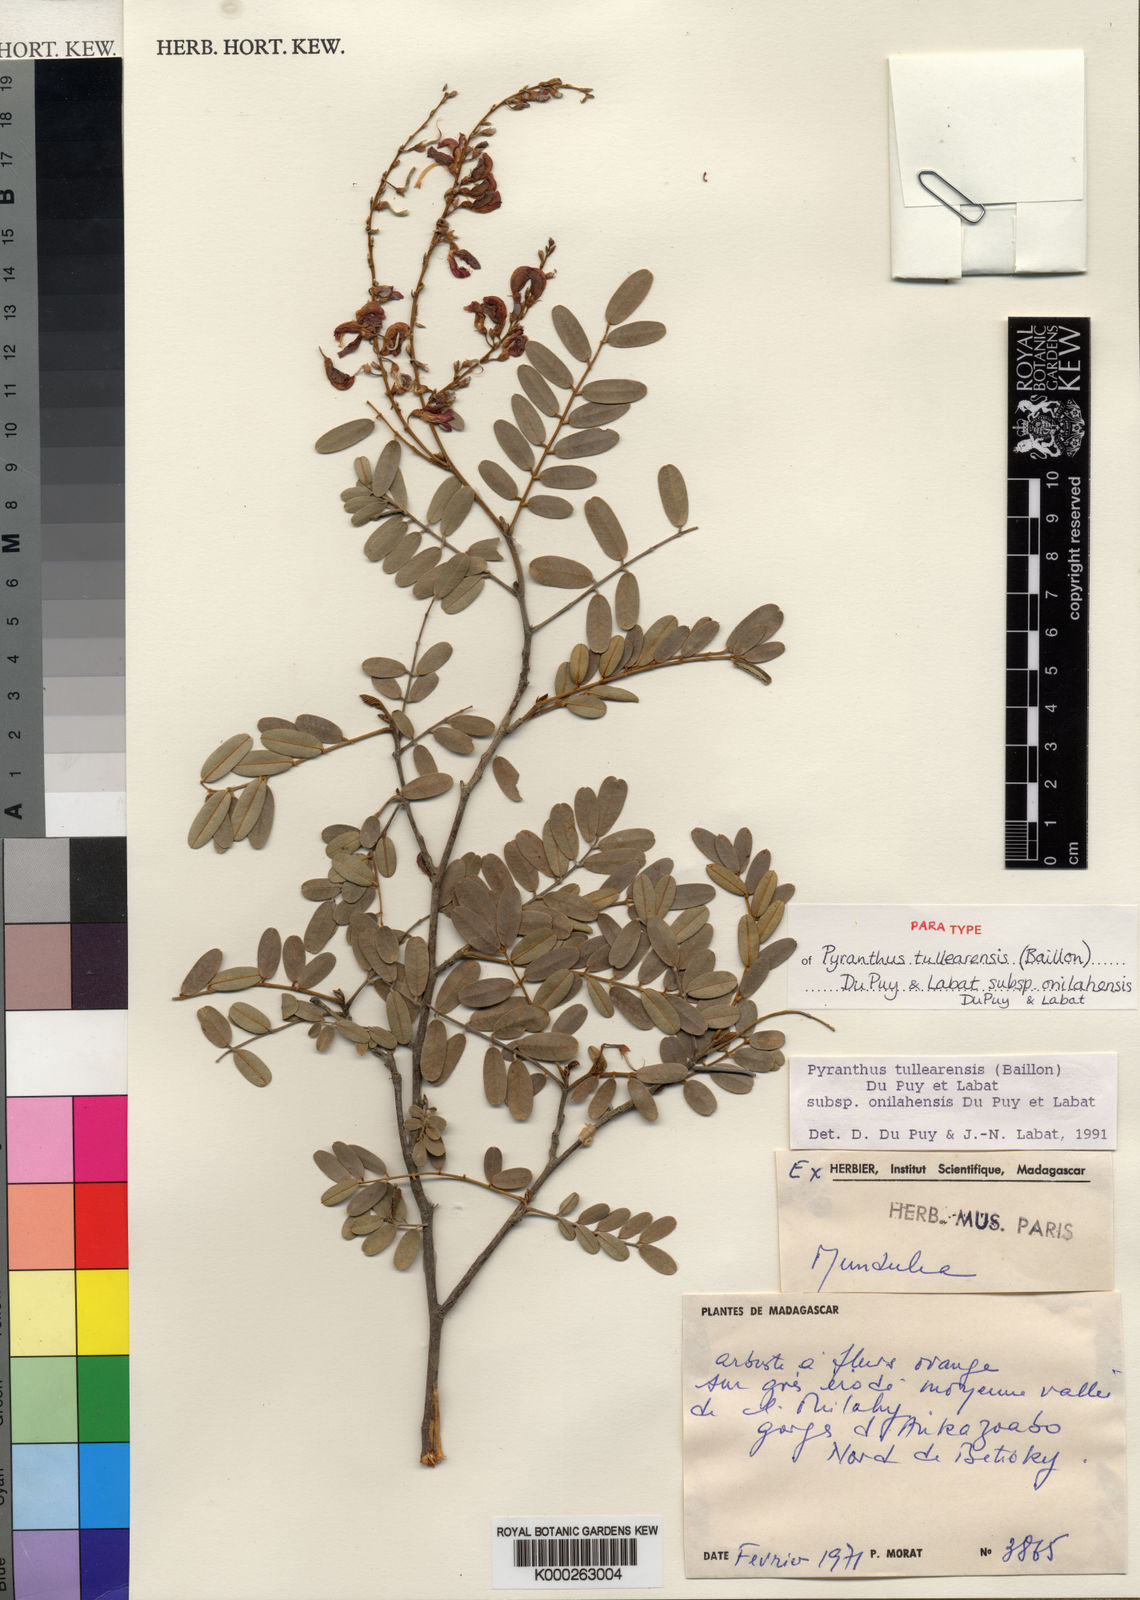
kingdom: Plantae
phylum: Tracheophyta
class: Magnoliopsida
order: Fabales
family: Fabaceae
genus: Pyranthus
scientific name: Pyranthus tullearensis
